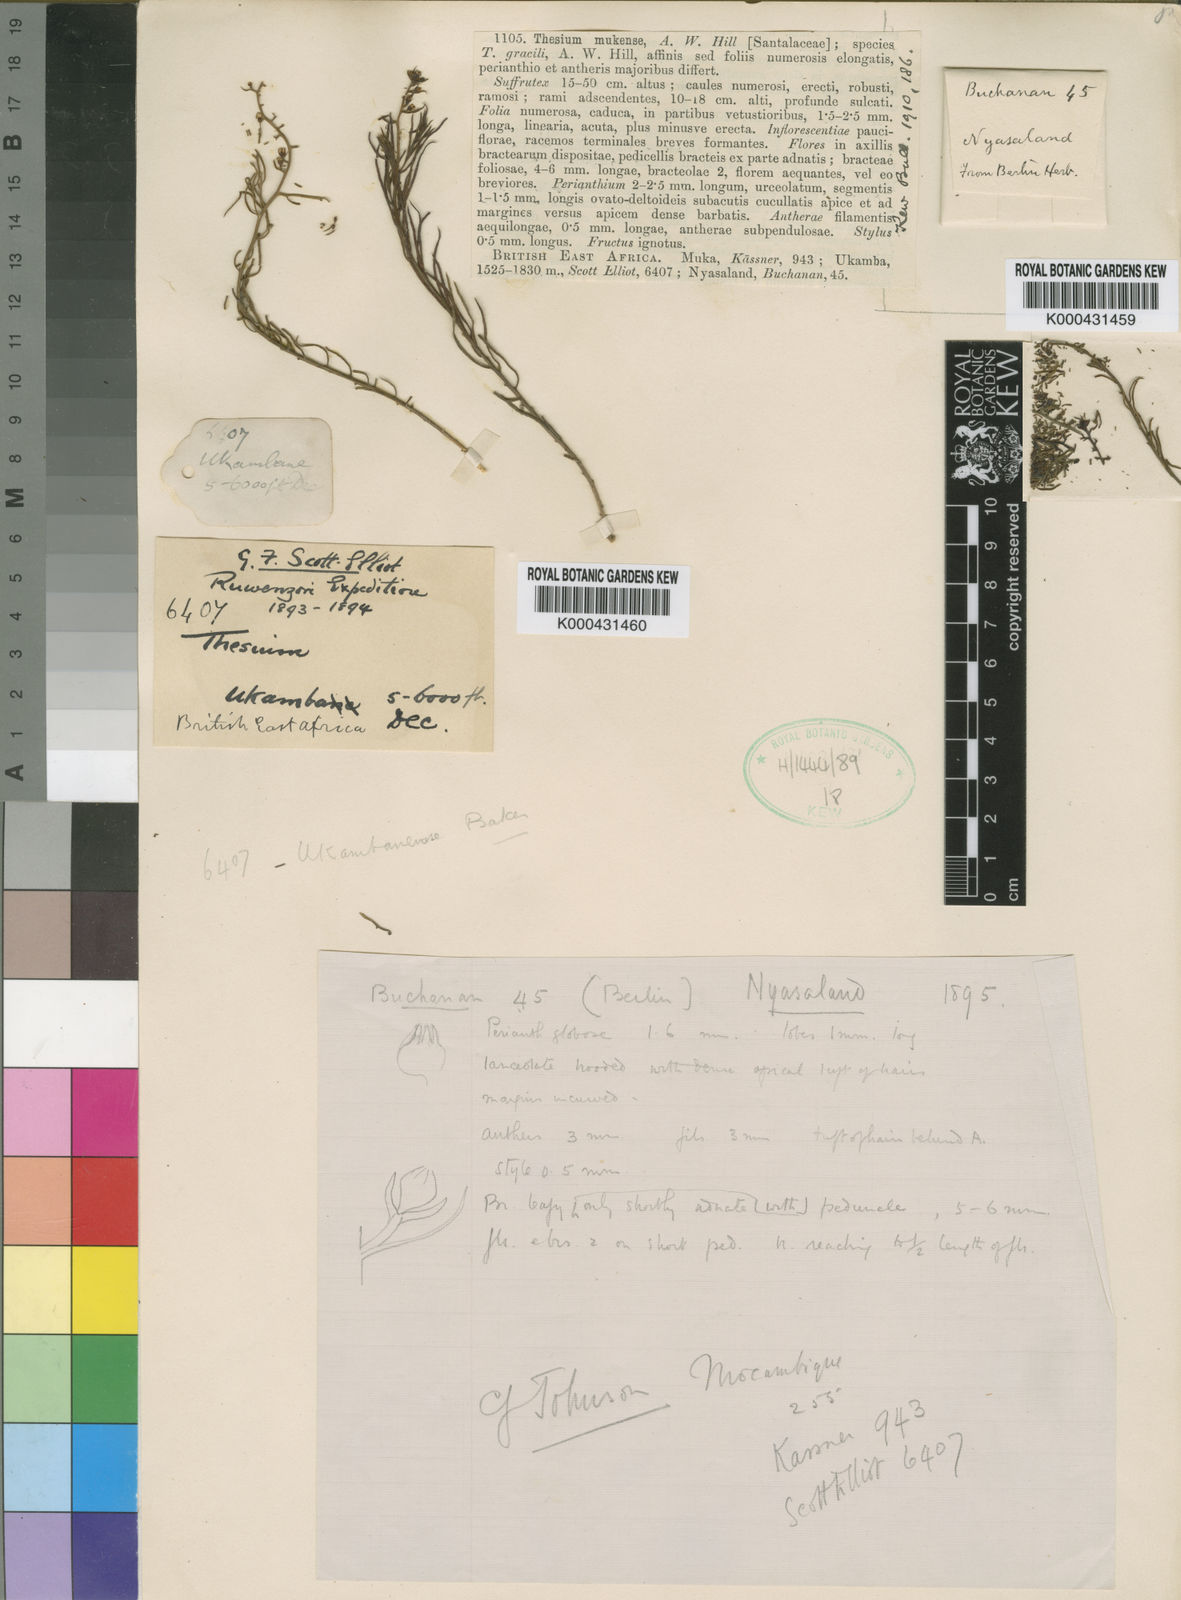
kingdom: Plantae
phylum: Tracheophyta
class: Magnoliopsida
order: Santalales
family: Thesiaceae
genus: Thesium
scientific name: Thesium whyteanum
